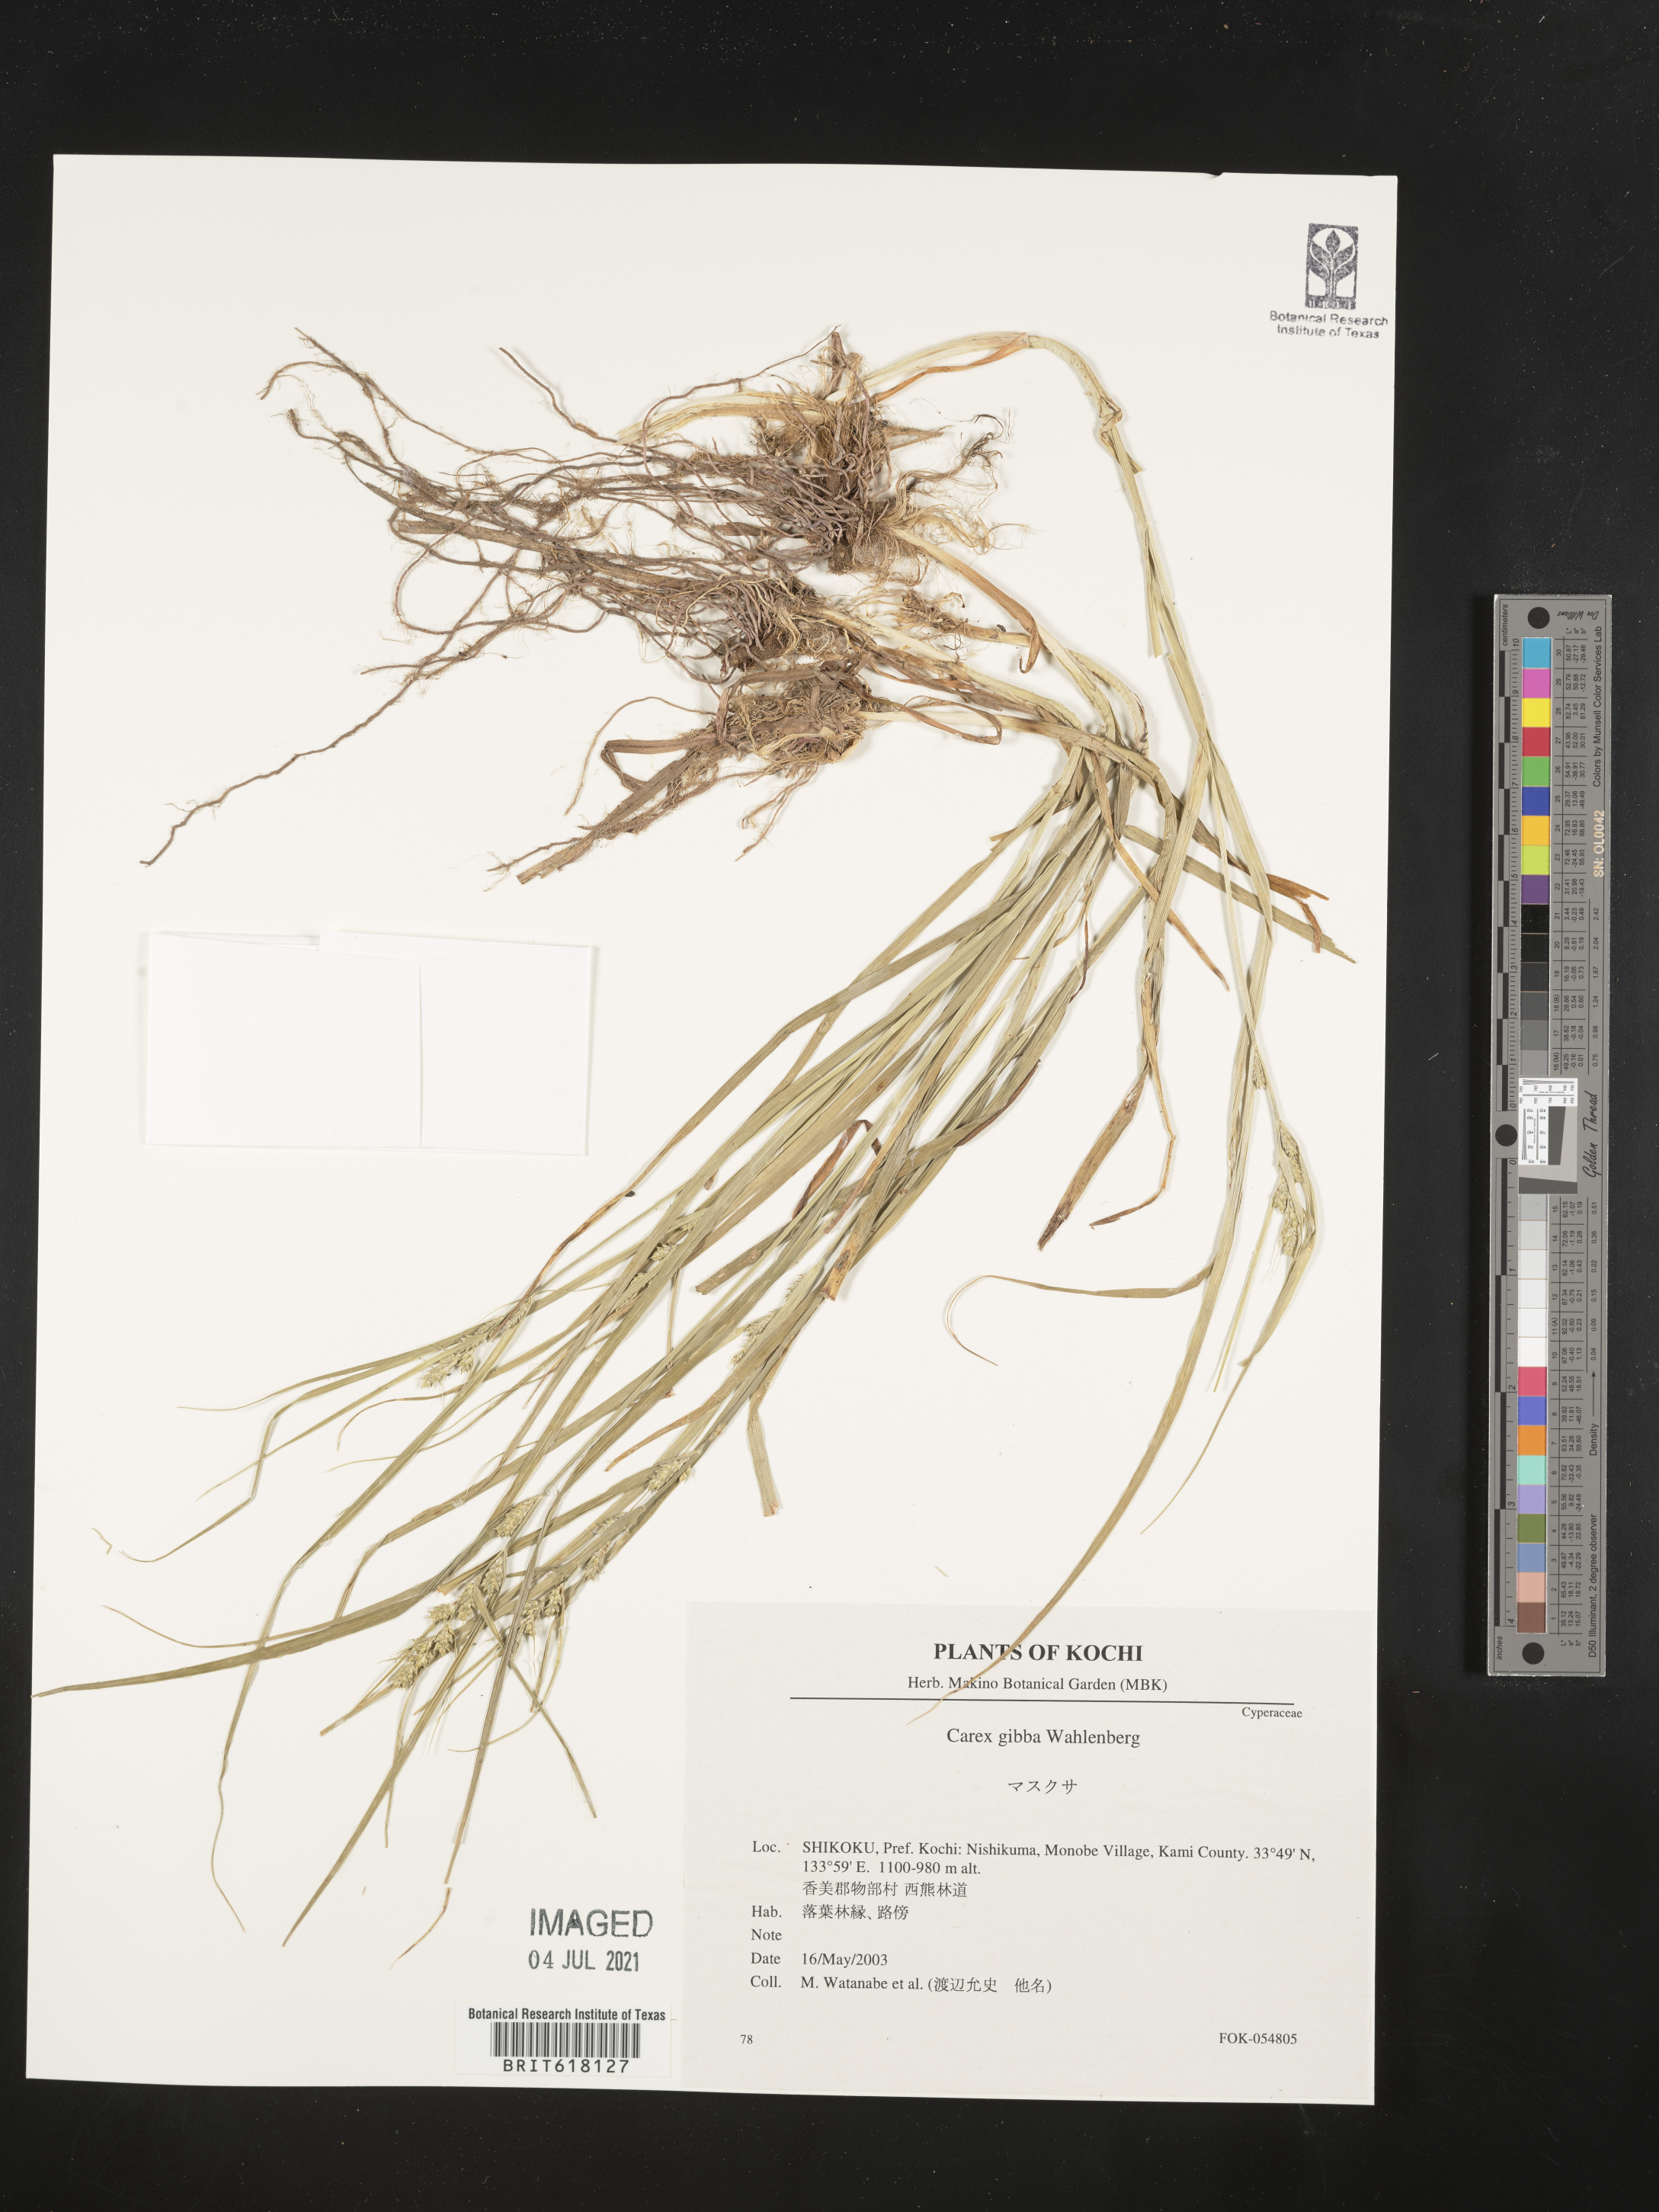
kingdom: Plantae
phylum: Tracheophyta
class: Liliopsida
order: Poales
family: Cyperaceae
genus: Carex
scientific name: Carex gibba
